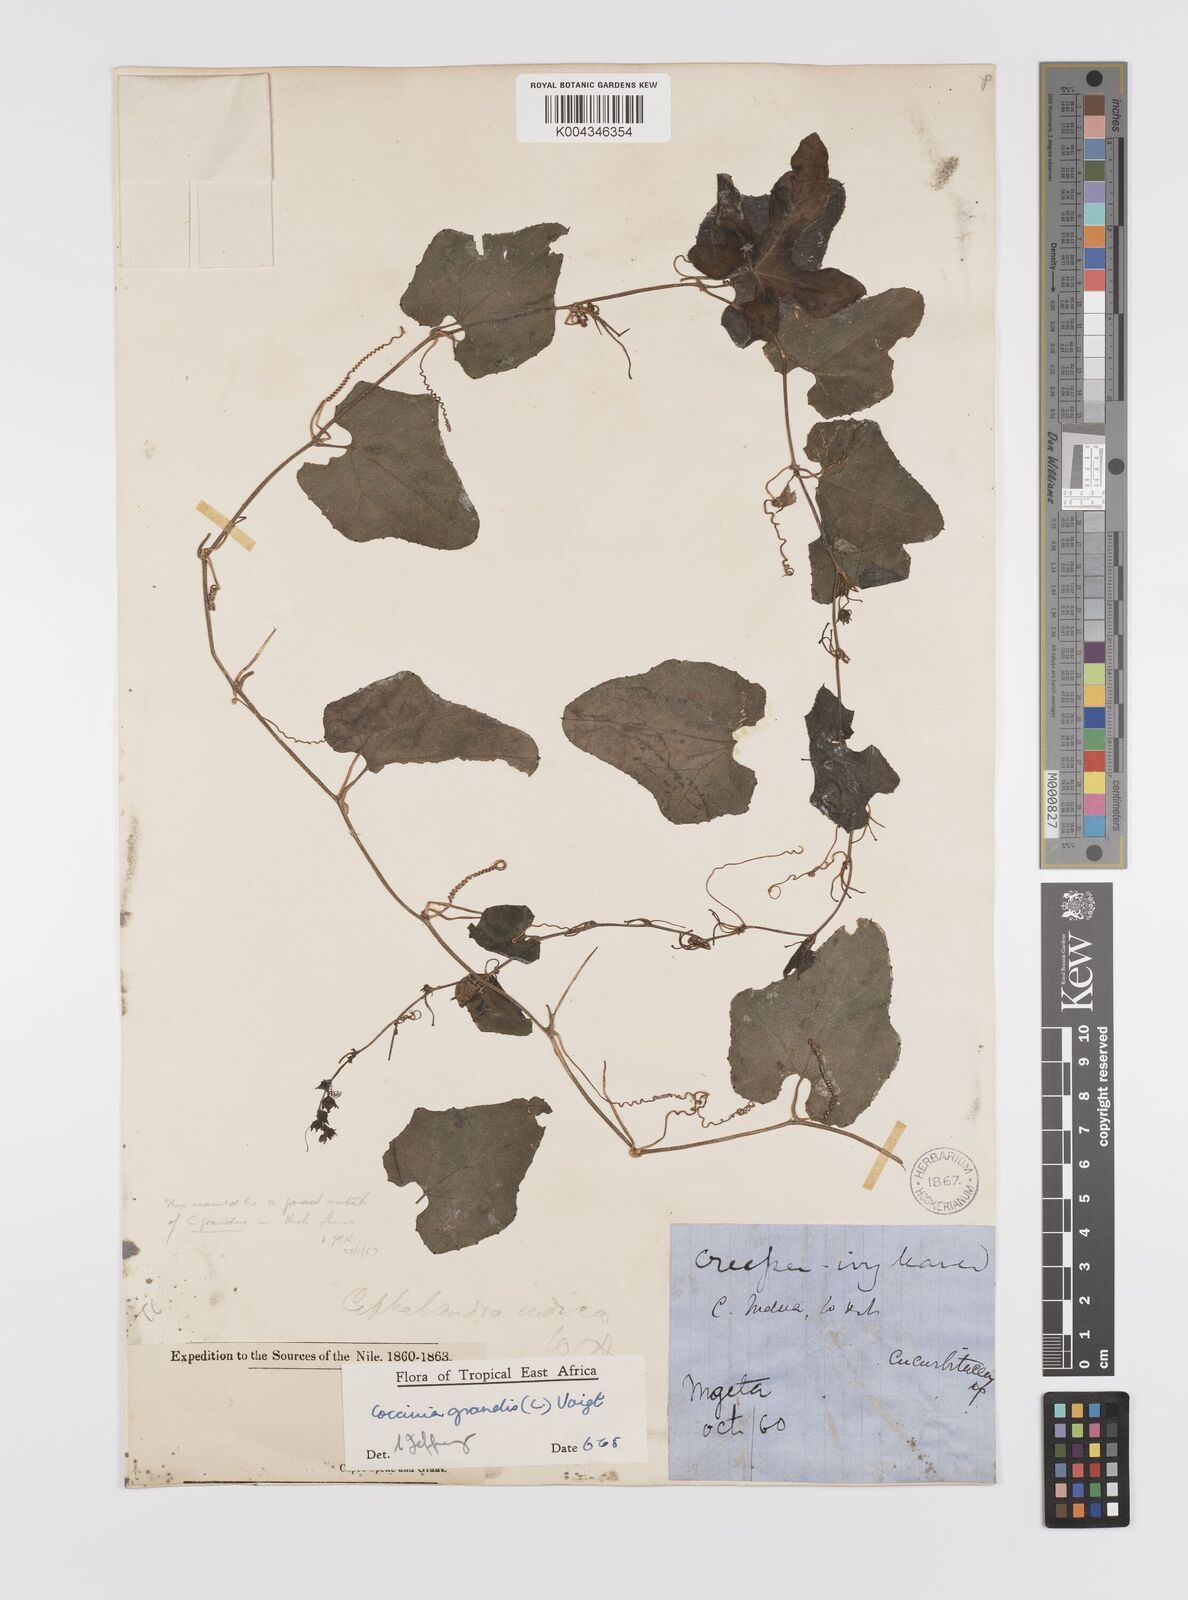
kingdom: Plantae
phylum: Tracheophyta
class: Magnoliopsida
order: Cucurbitales
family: Cucurbitaceae
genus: Coccinia
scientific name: Coccinia grandis
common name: Ivy gourd
